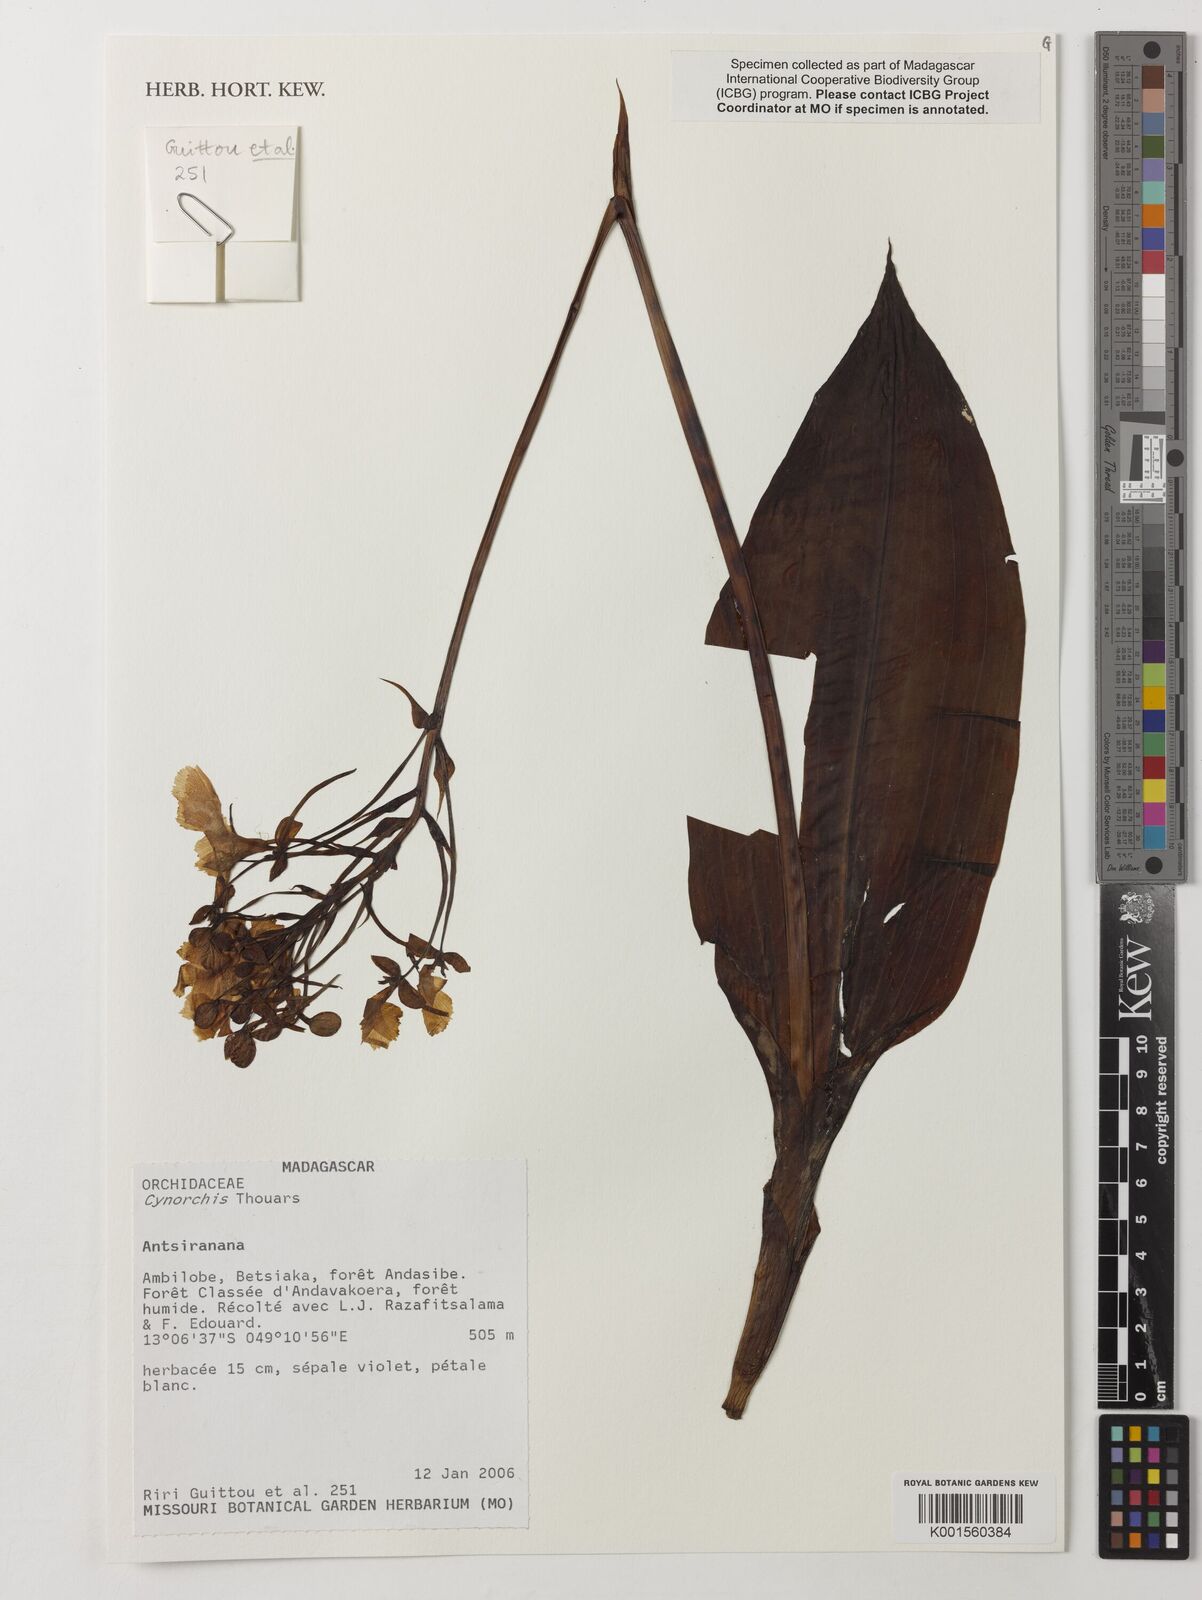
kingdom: Plantae
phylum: Tracheophyta
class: Liliopsida
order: Asparagales
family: Orchidaceae
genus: Cynorkis
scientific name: Cynorkis
